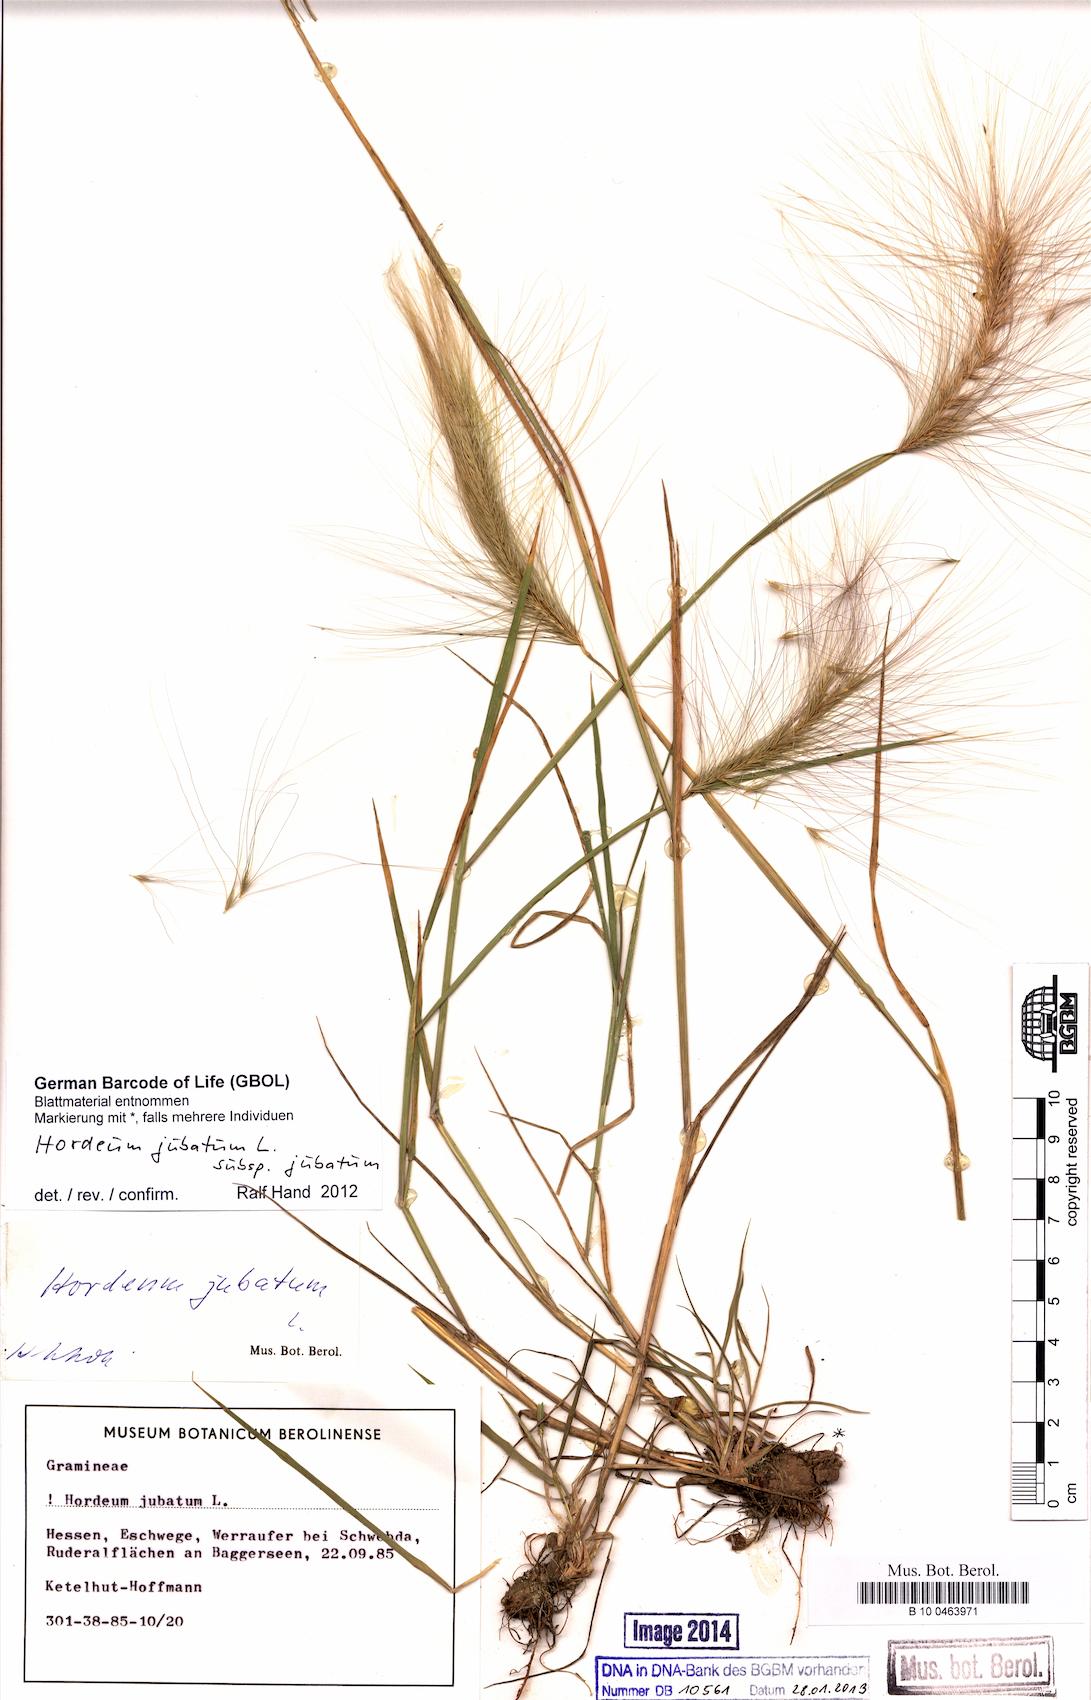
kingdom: Plantae
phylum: Tracheophyta
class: Liliopsida
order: Poales
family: Poaceae
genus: Hordeum
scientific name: Hordeum jubatum
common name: Foxtail barley
